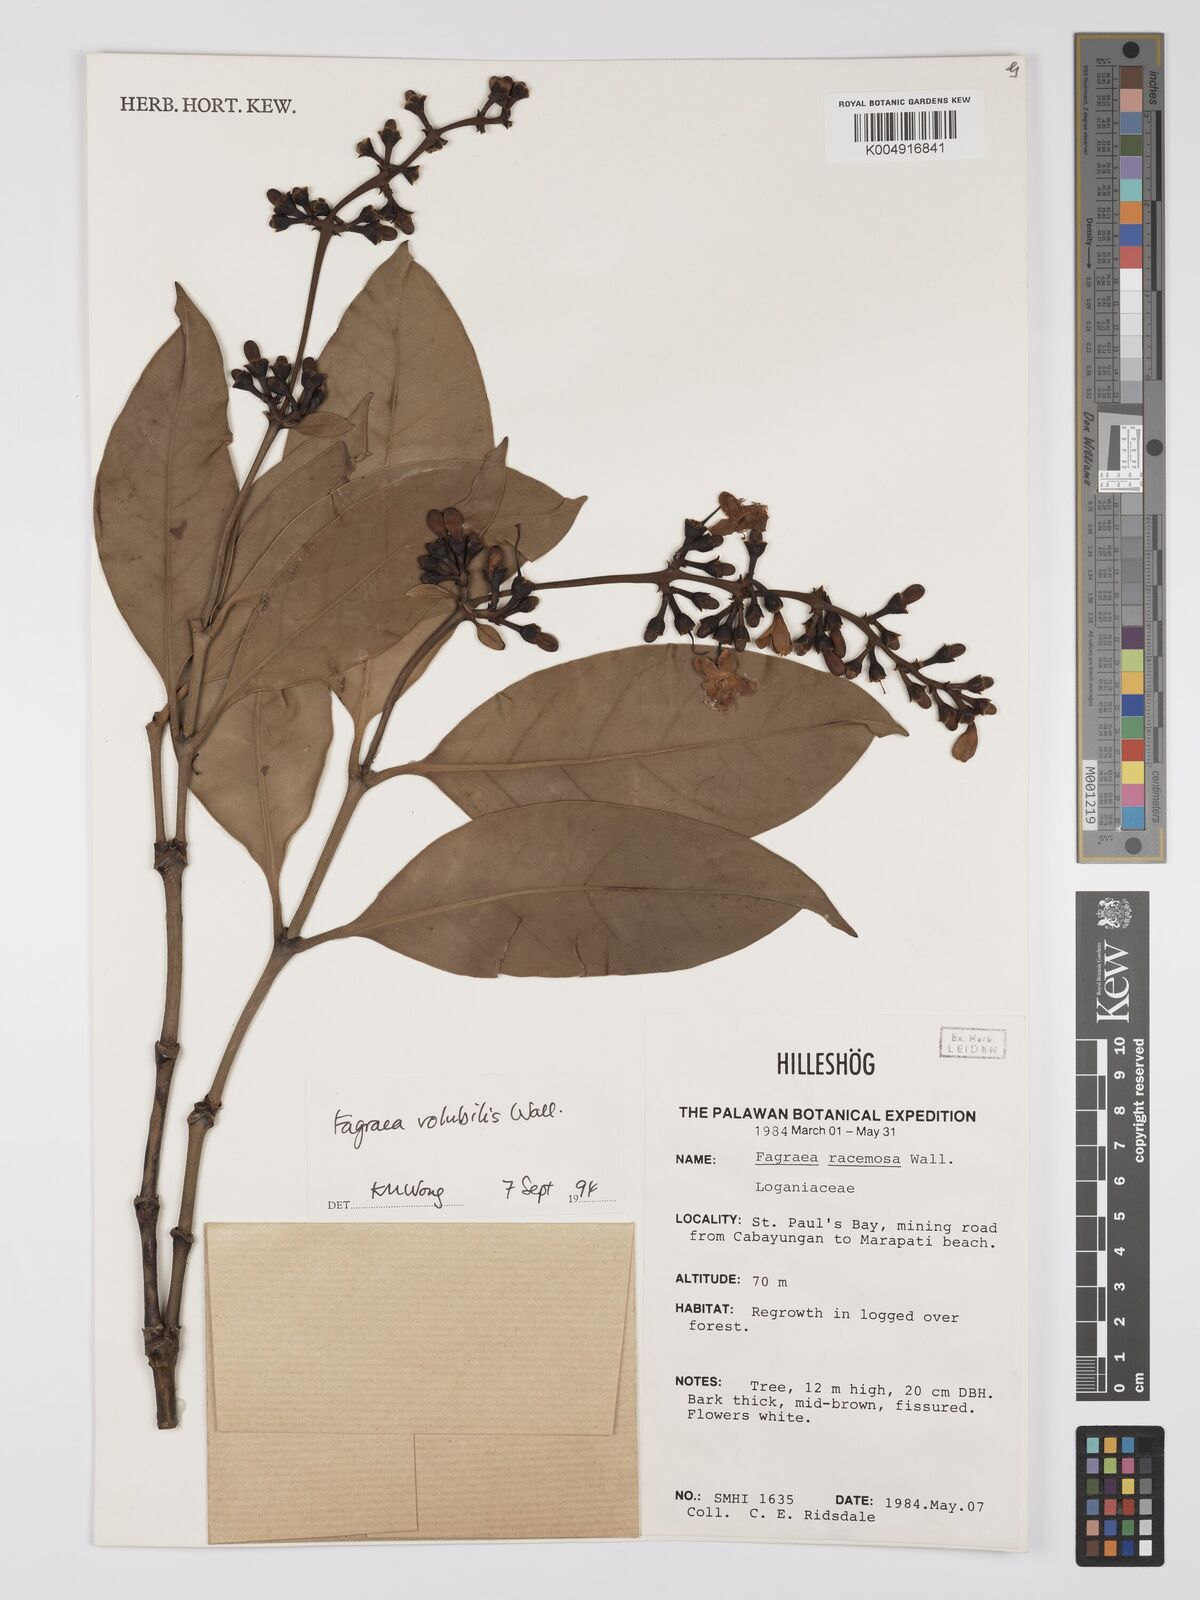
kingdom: Plantae
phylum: Tracheophyta
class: Magnoliopsida
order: Gentianales
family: Gentianaceae
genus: Utania
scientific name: Utania racemosa
